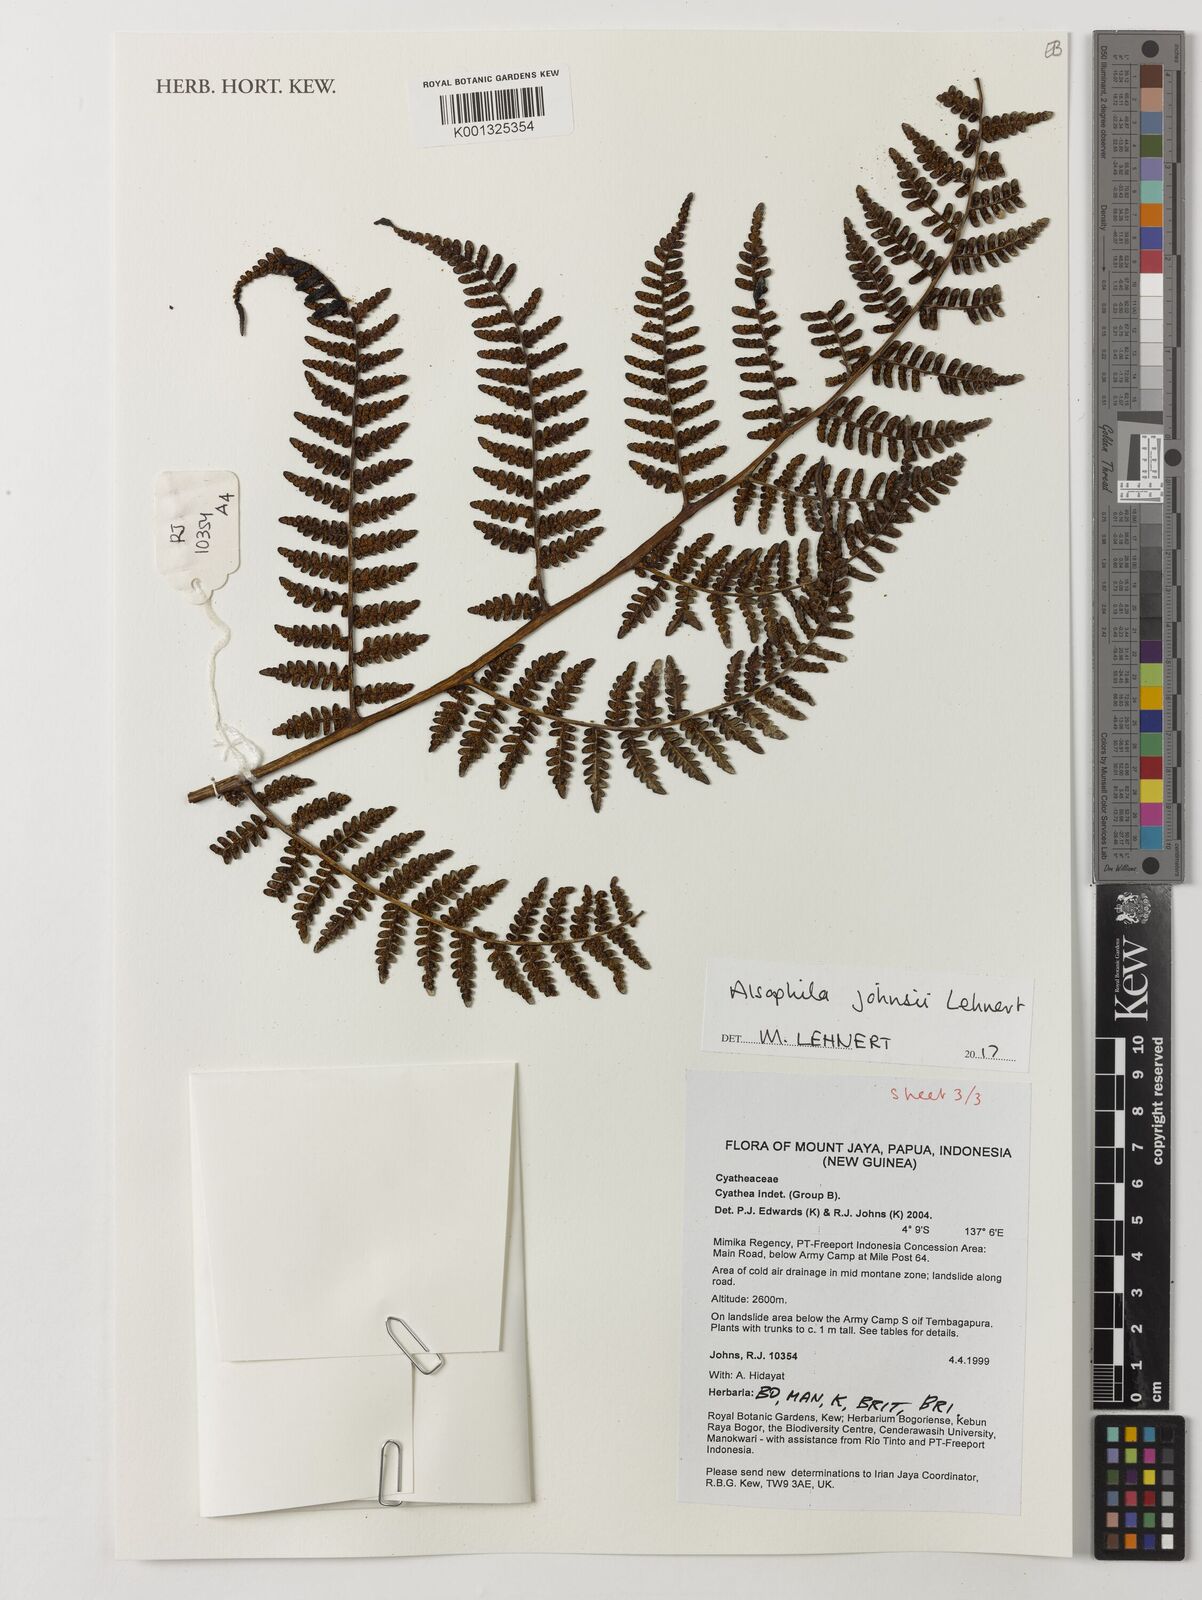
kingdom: Plantae
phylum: Tracheophyta
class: Polypodiopsida
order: Cyatheales
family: Cyatheaceae
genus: Alsophila
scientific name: Alsophila johnsii
